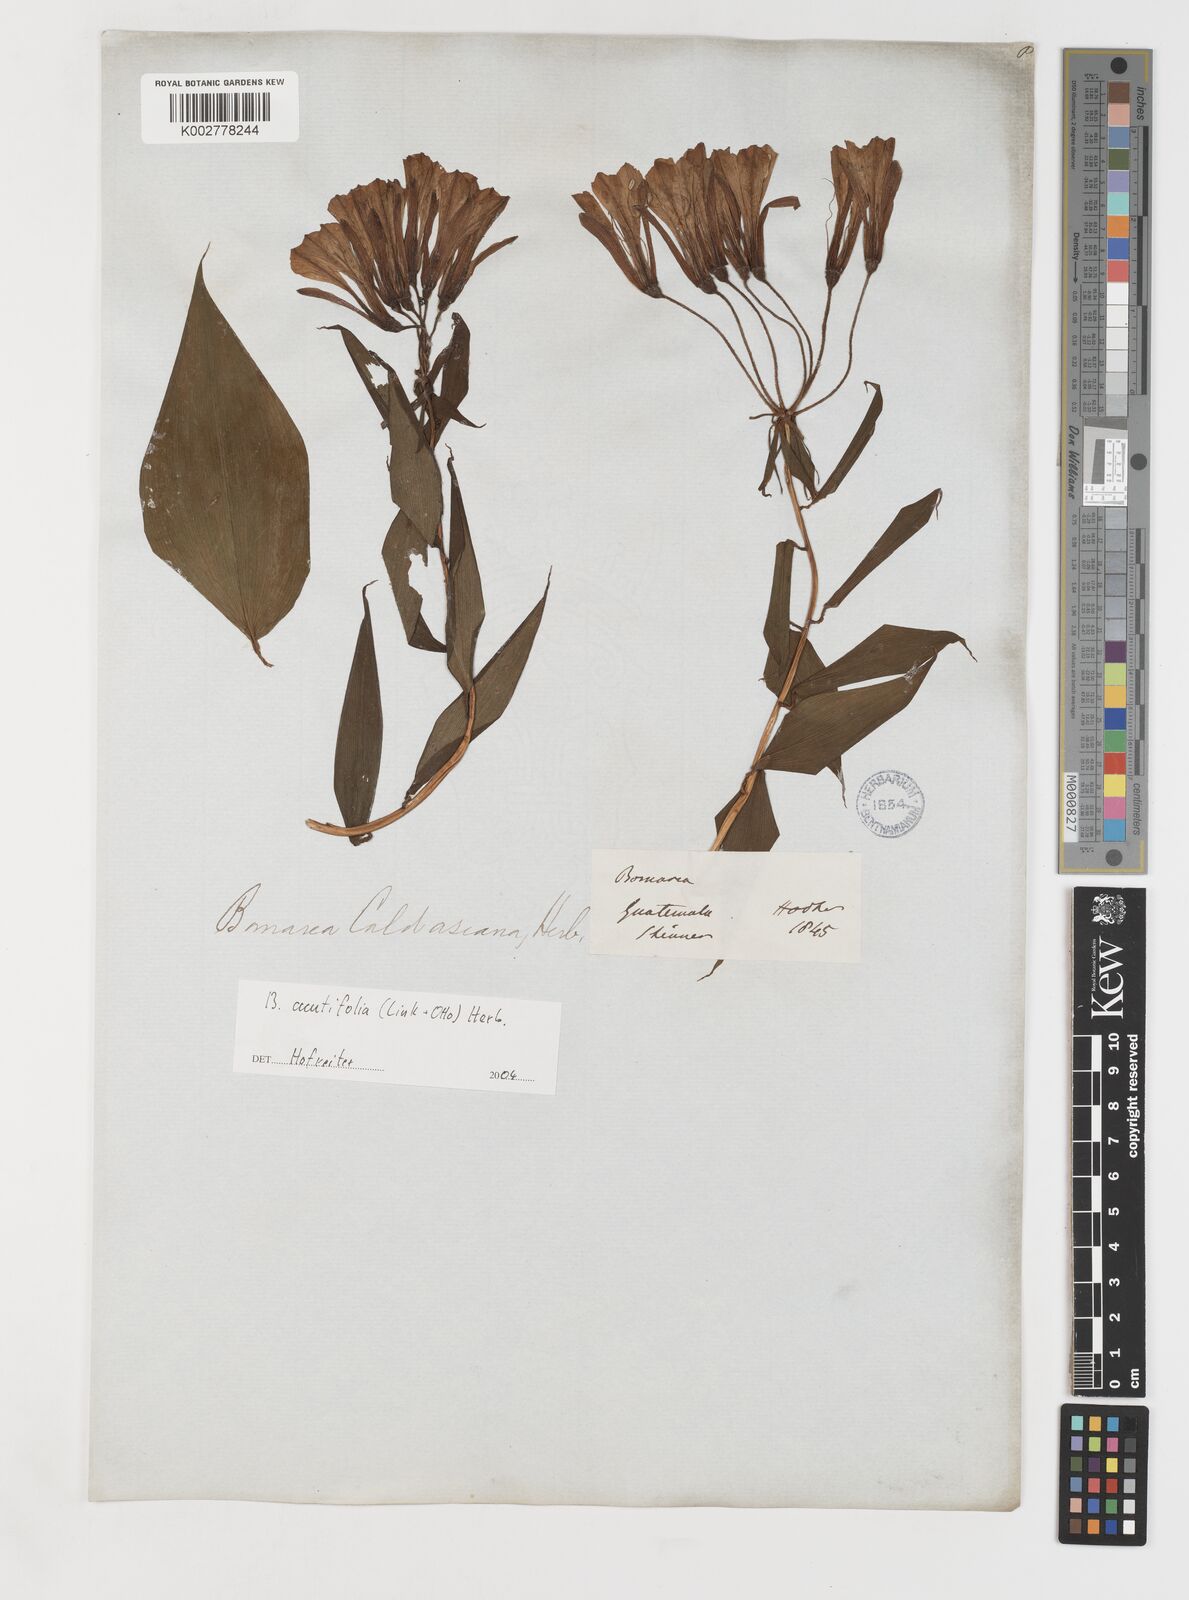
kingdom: Plantae
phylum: Tracheophyta
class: Liliopsida
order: Liliales
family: Alstroemeriaceae
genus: Bomarea
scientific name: Bomarea acutifolia
